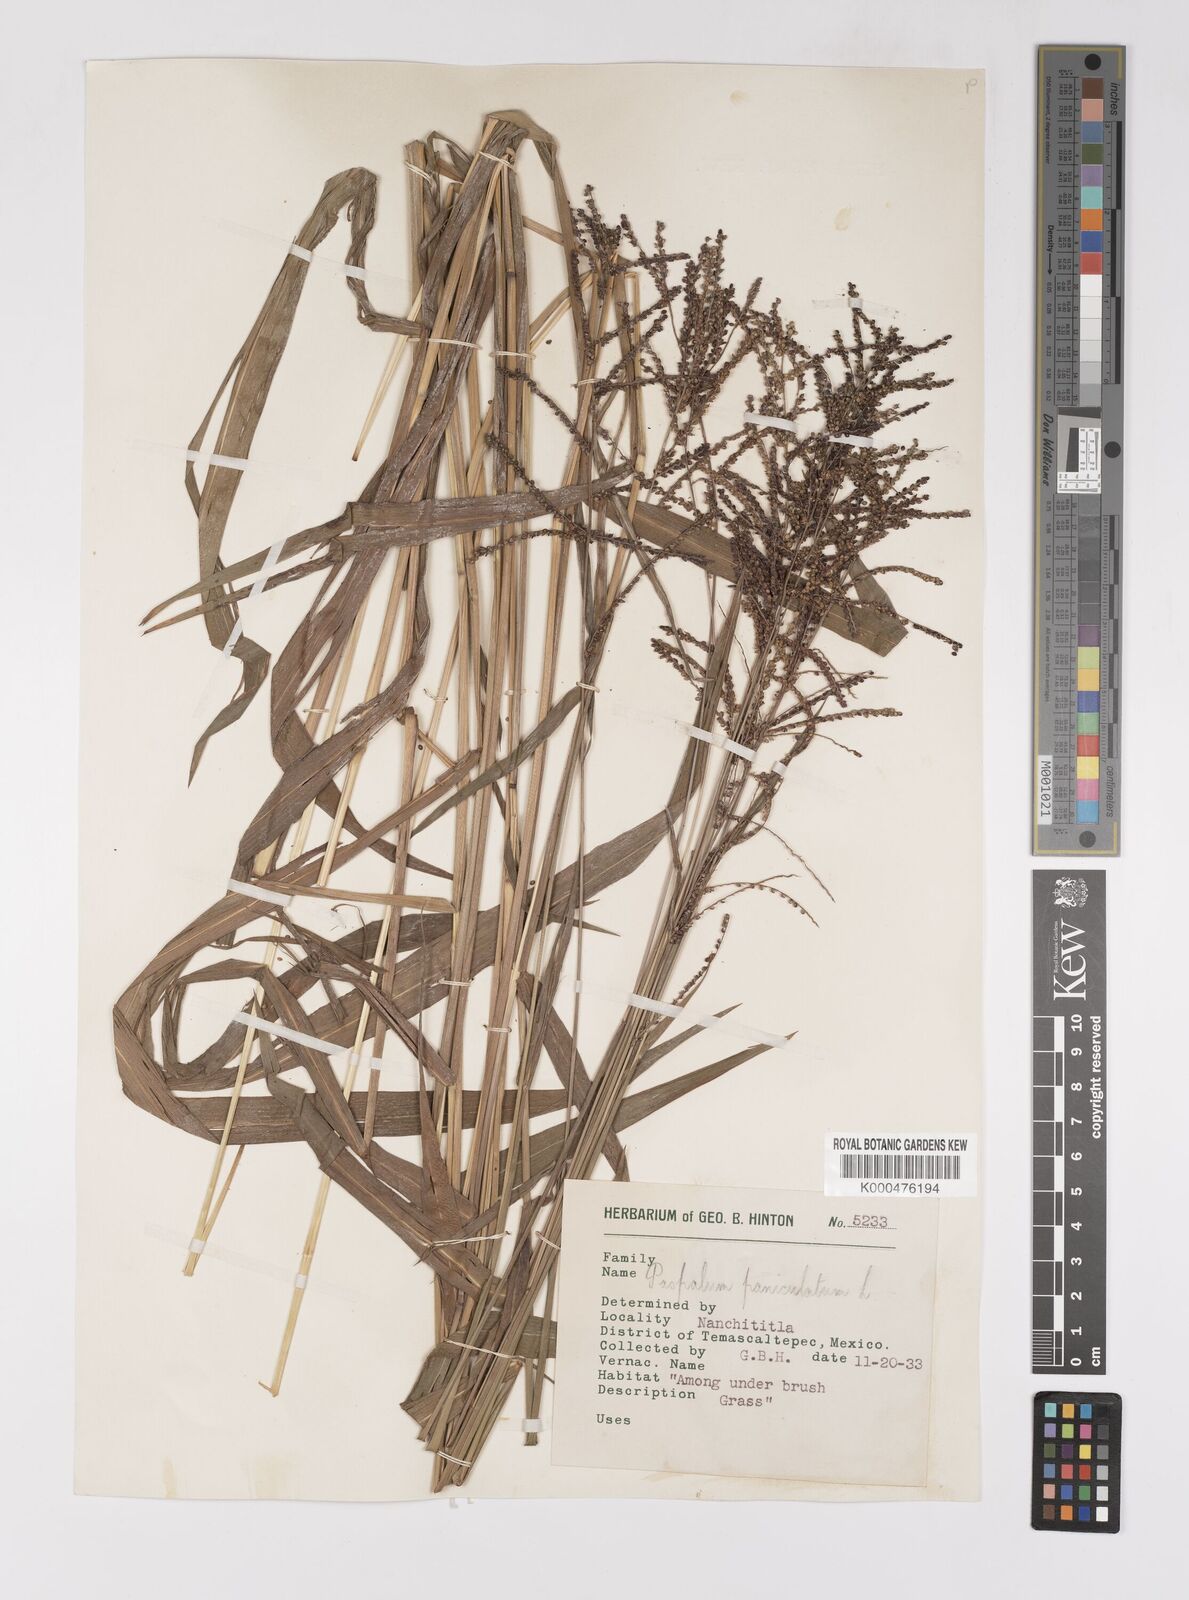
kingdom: Plantae
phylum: Tracheophyta
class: Liliopsida
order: Poales
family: Poaceae
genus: Paspalum
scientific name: Paspalum paniculatum
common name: Arrocillo
